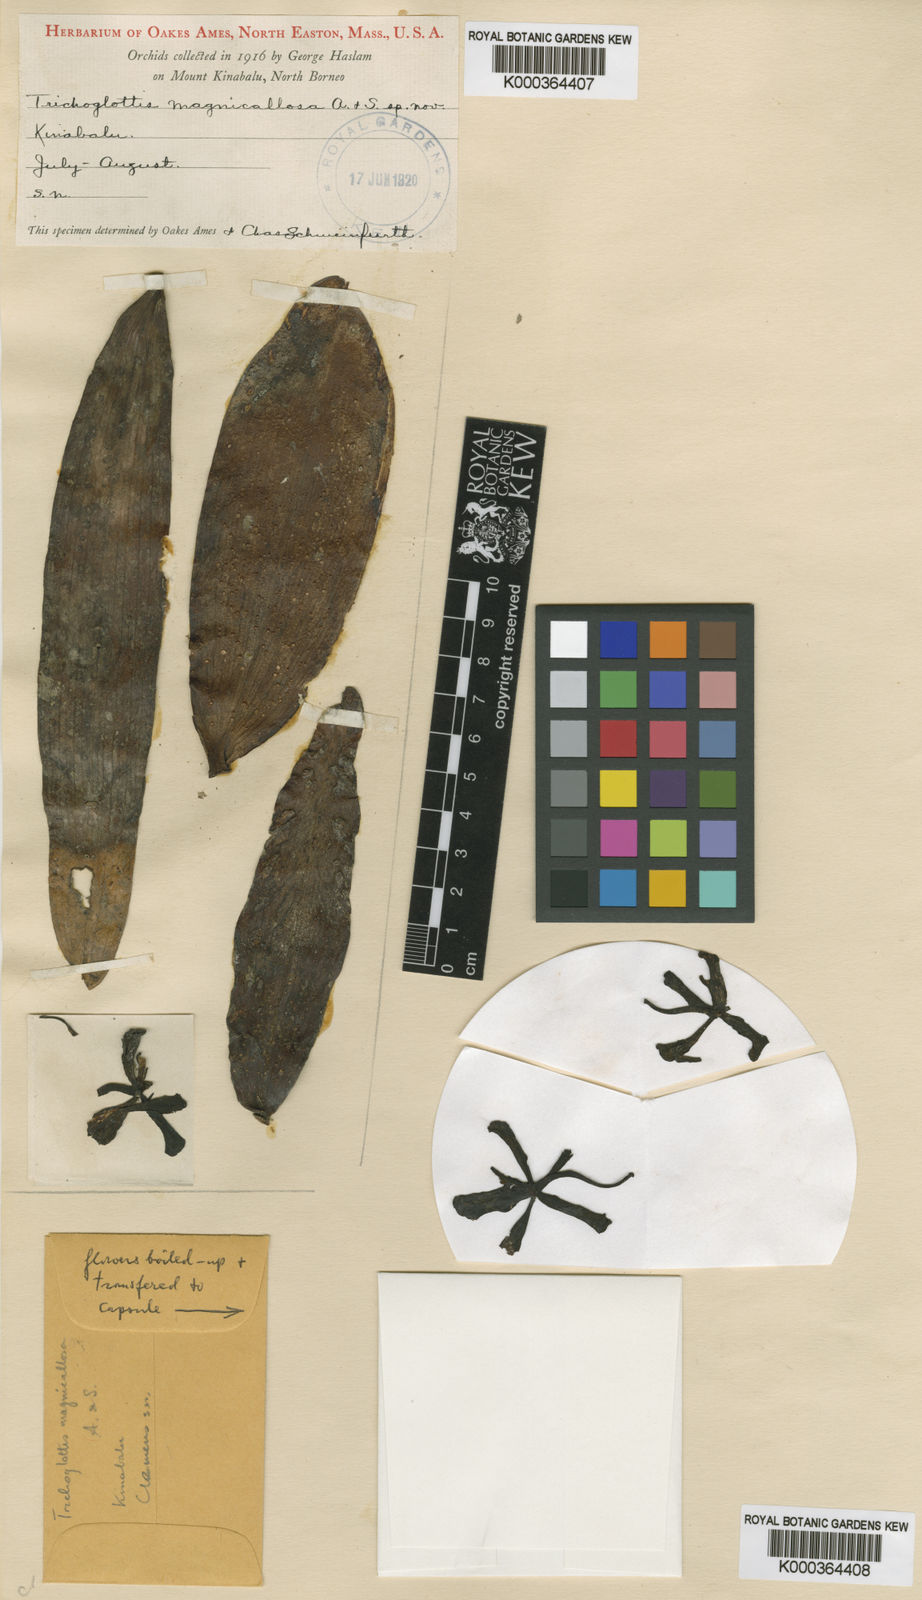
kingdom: Plantae
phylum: Tracheophyta
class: Liliopsida
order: Asparagales
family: Orchidaceae
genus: Trichoglottis
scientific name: Trichoglottis magnicallosa
